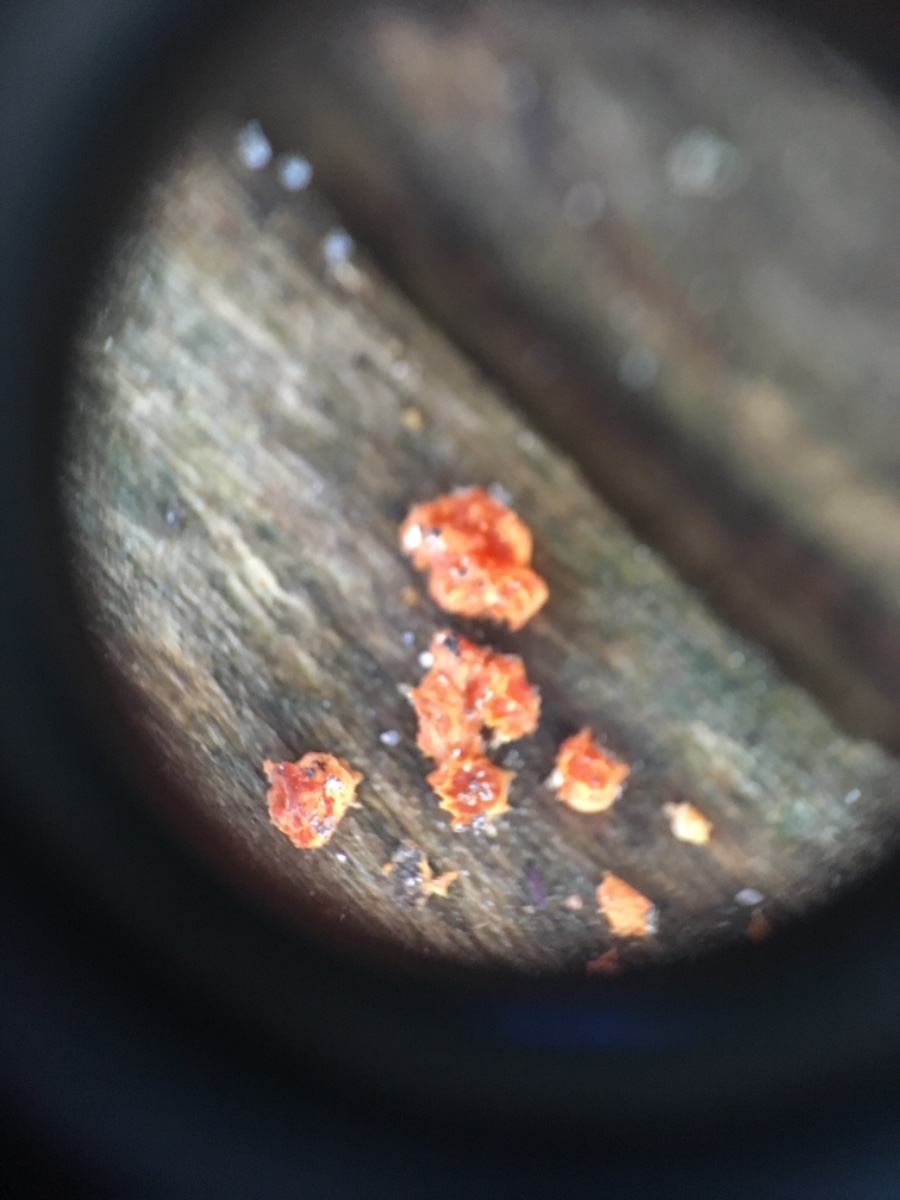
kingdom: Fungi
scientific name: Fungi
